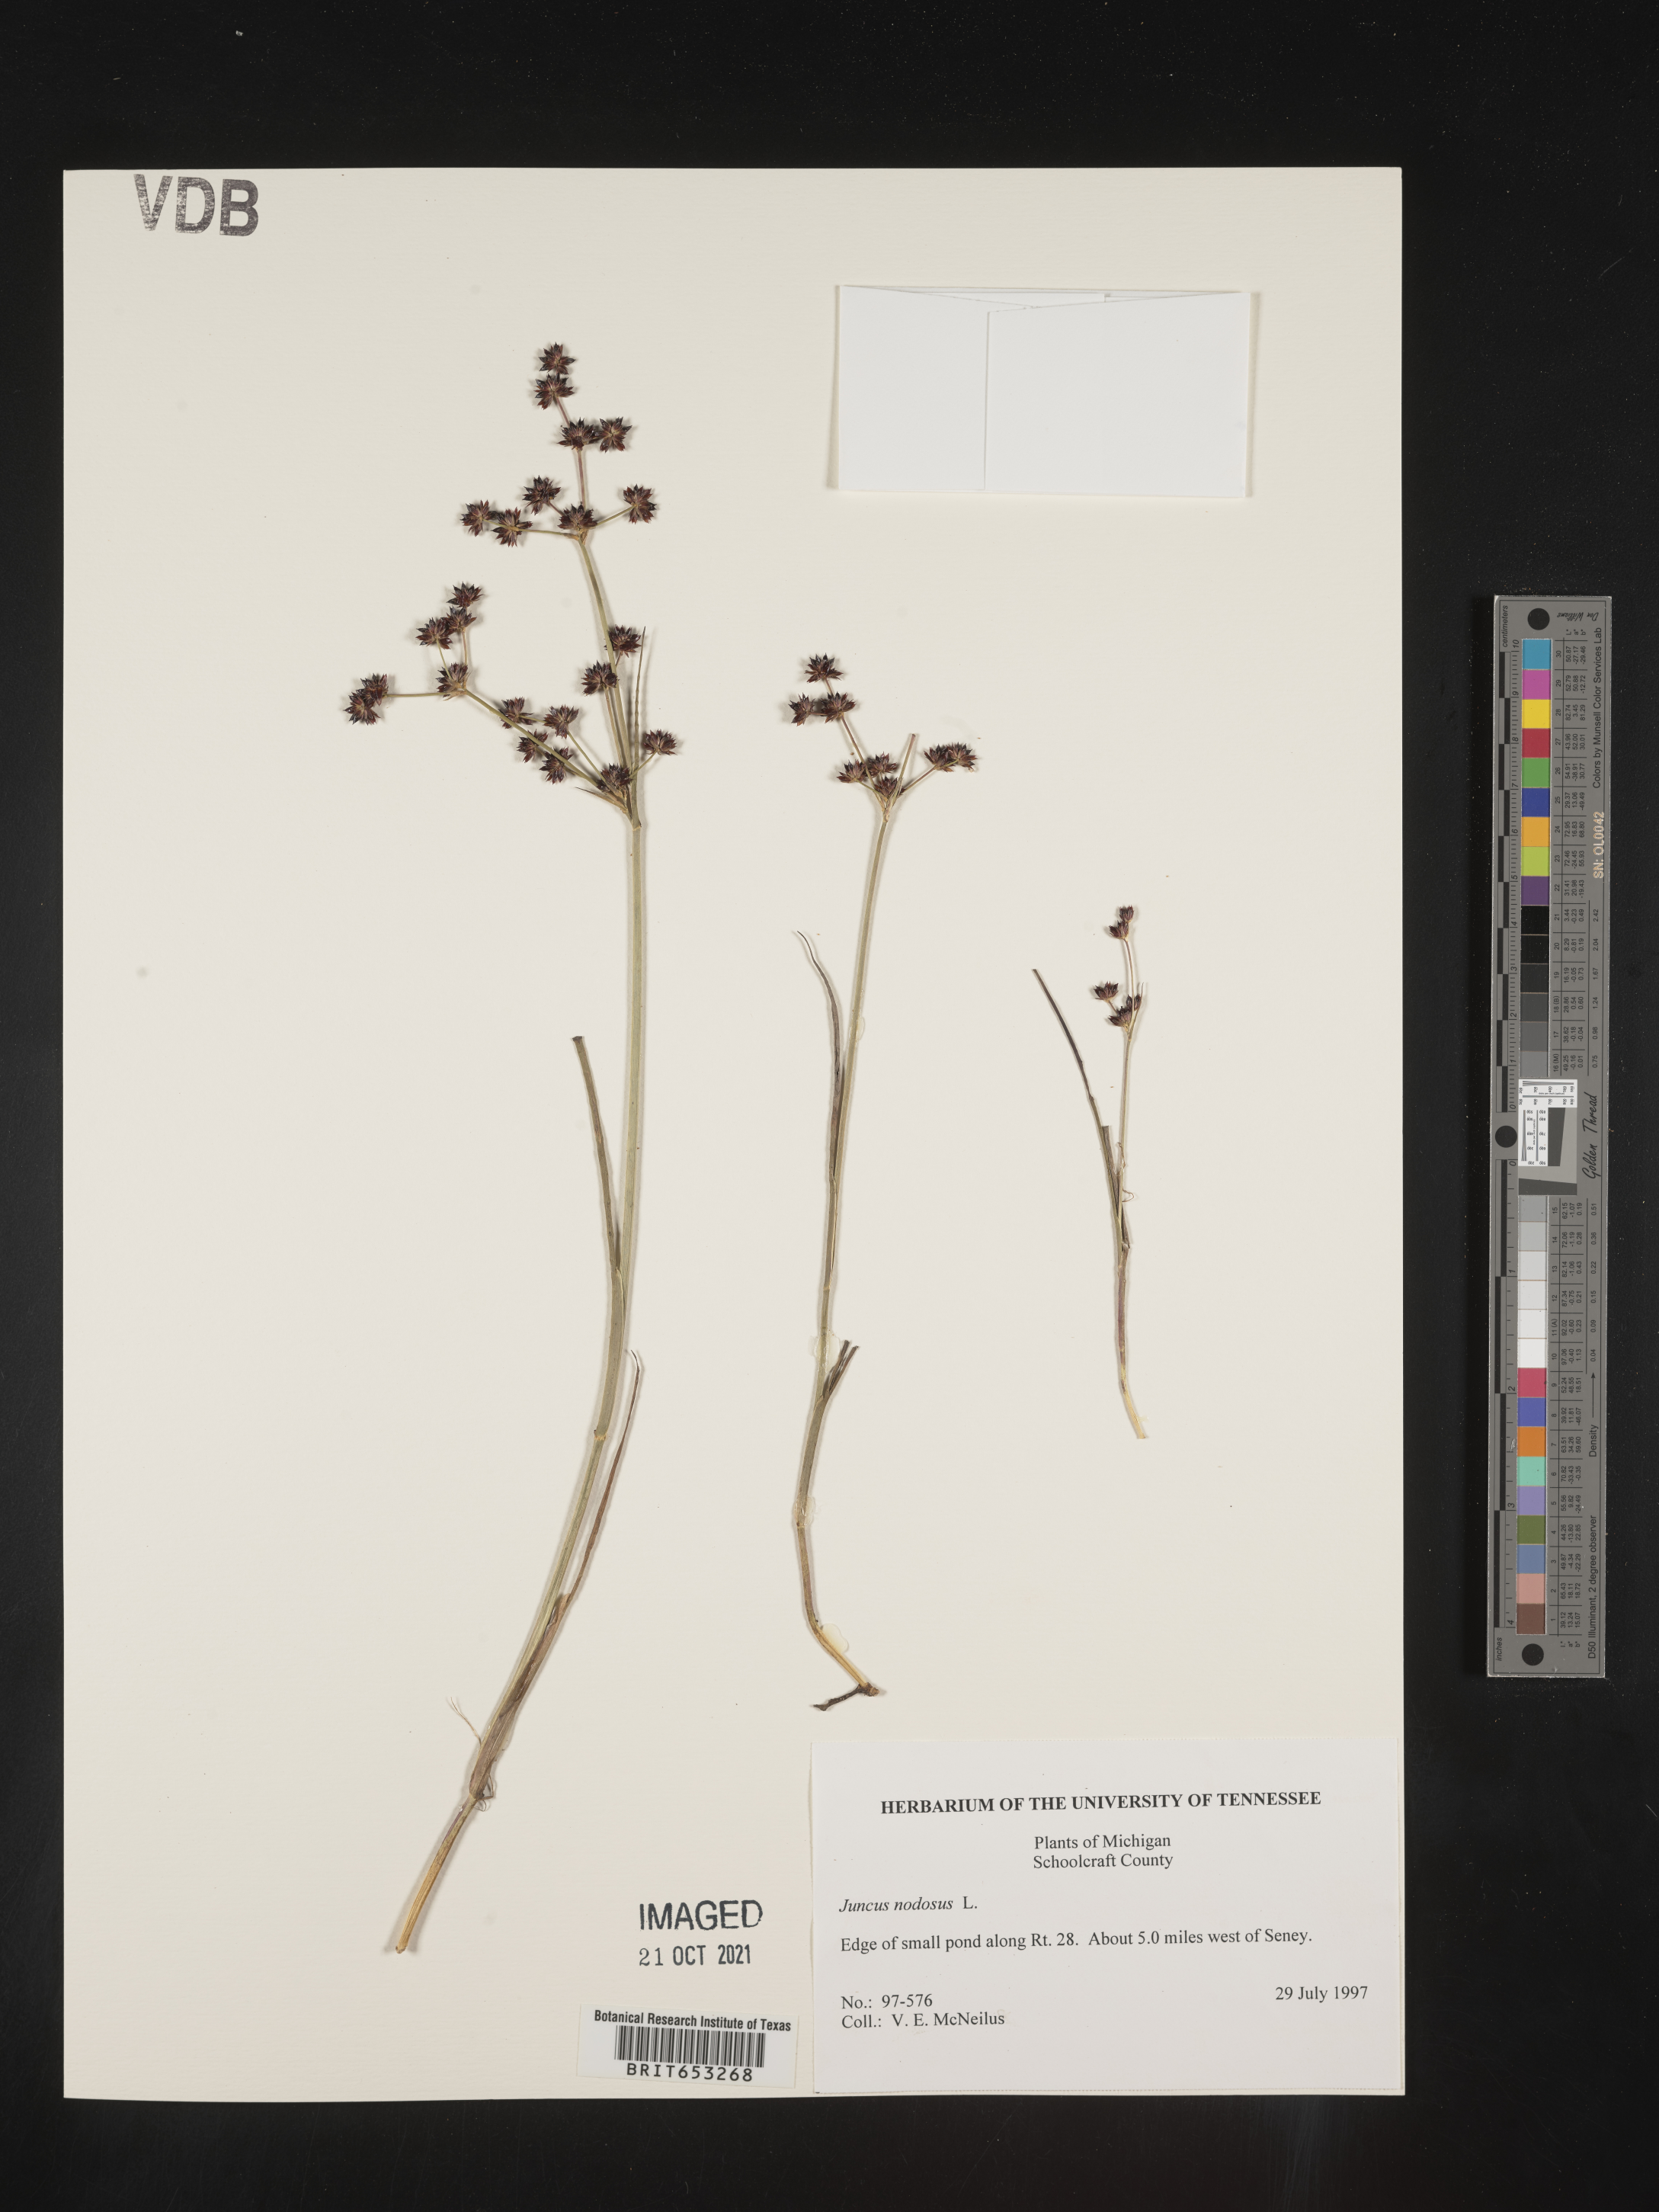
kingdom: Plantae
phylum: Tracheophyta
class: Liliopsida
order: Poales
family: Juncaceae
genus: Juncus
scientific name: Juncus nodosus
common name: Knotted rush
